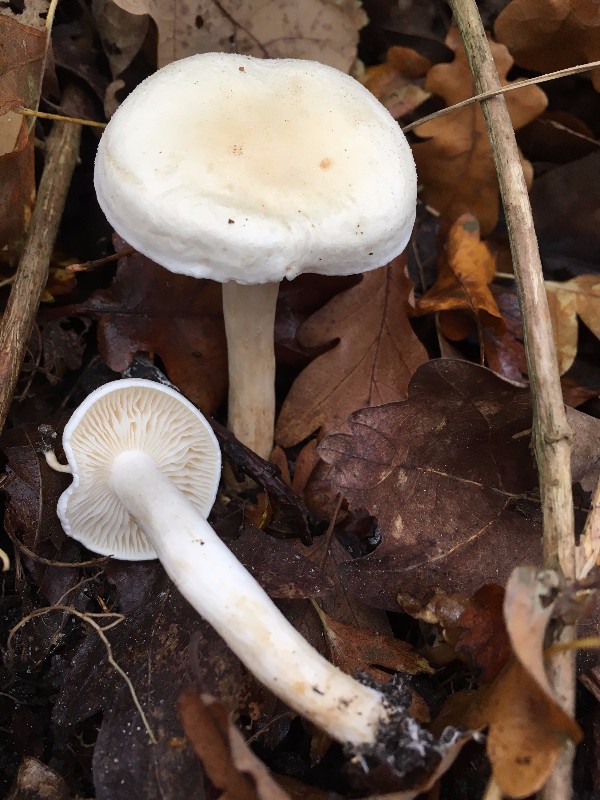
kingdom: Fungi
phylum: Basidiomycota
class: Agaricomycetes
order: Agaricales
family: Tricholomataceae
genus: Tricholoma
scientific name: Tricholoma lascivum
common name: stinkende ridderhat
